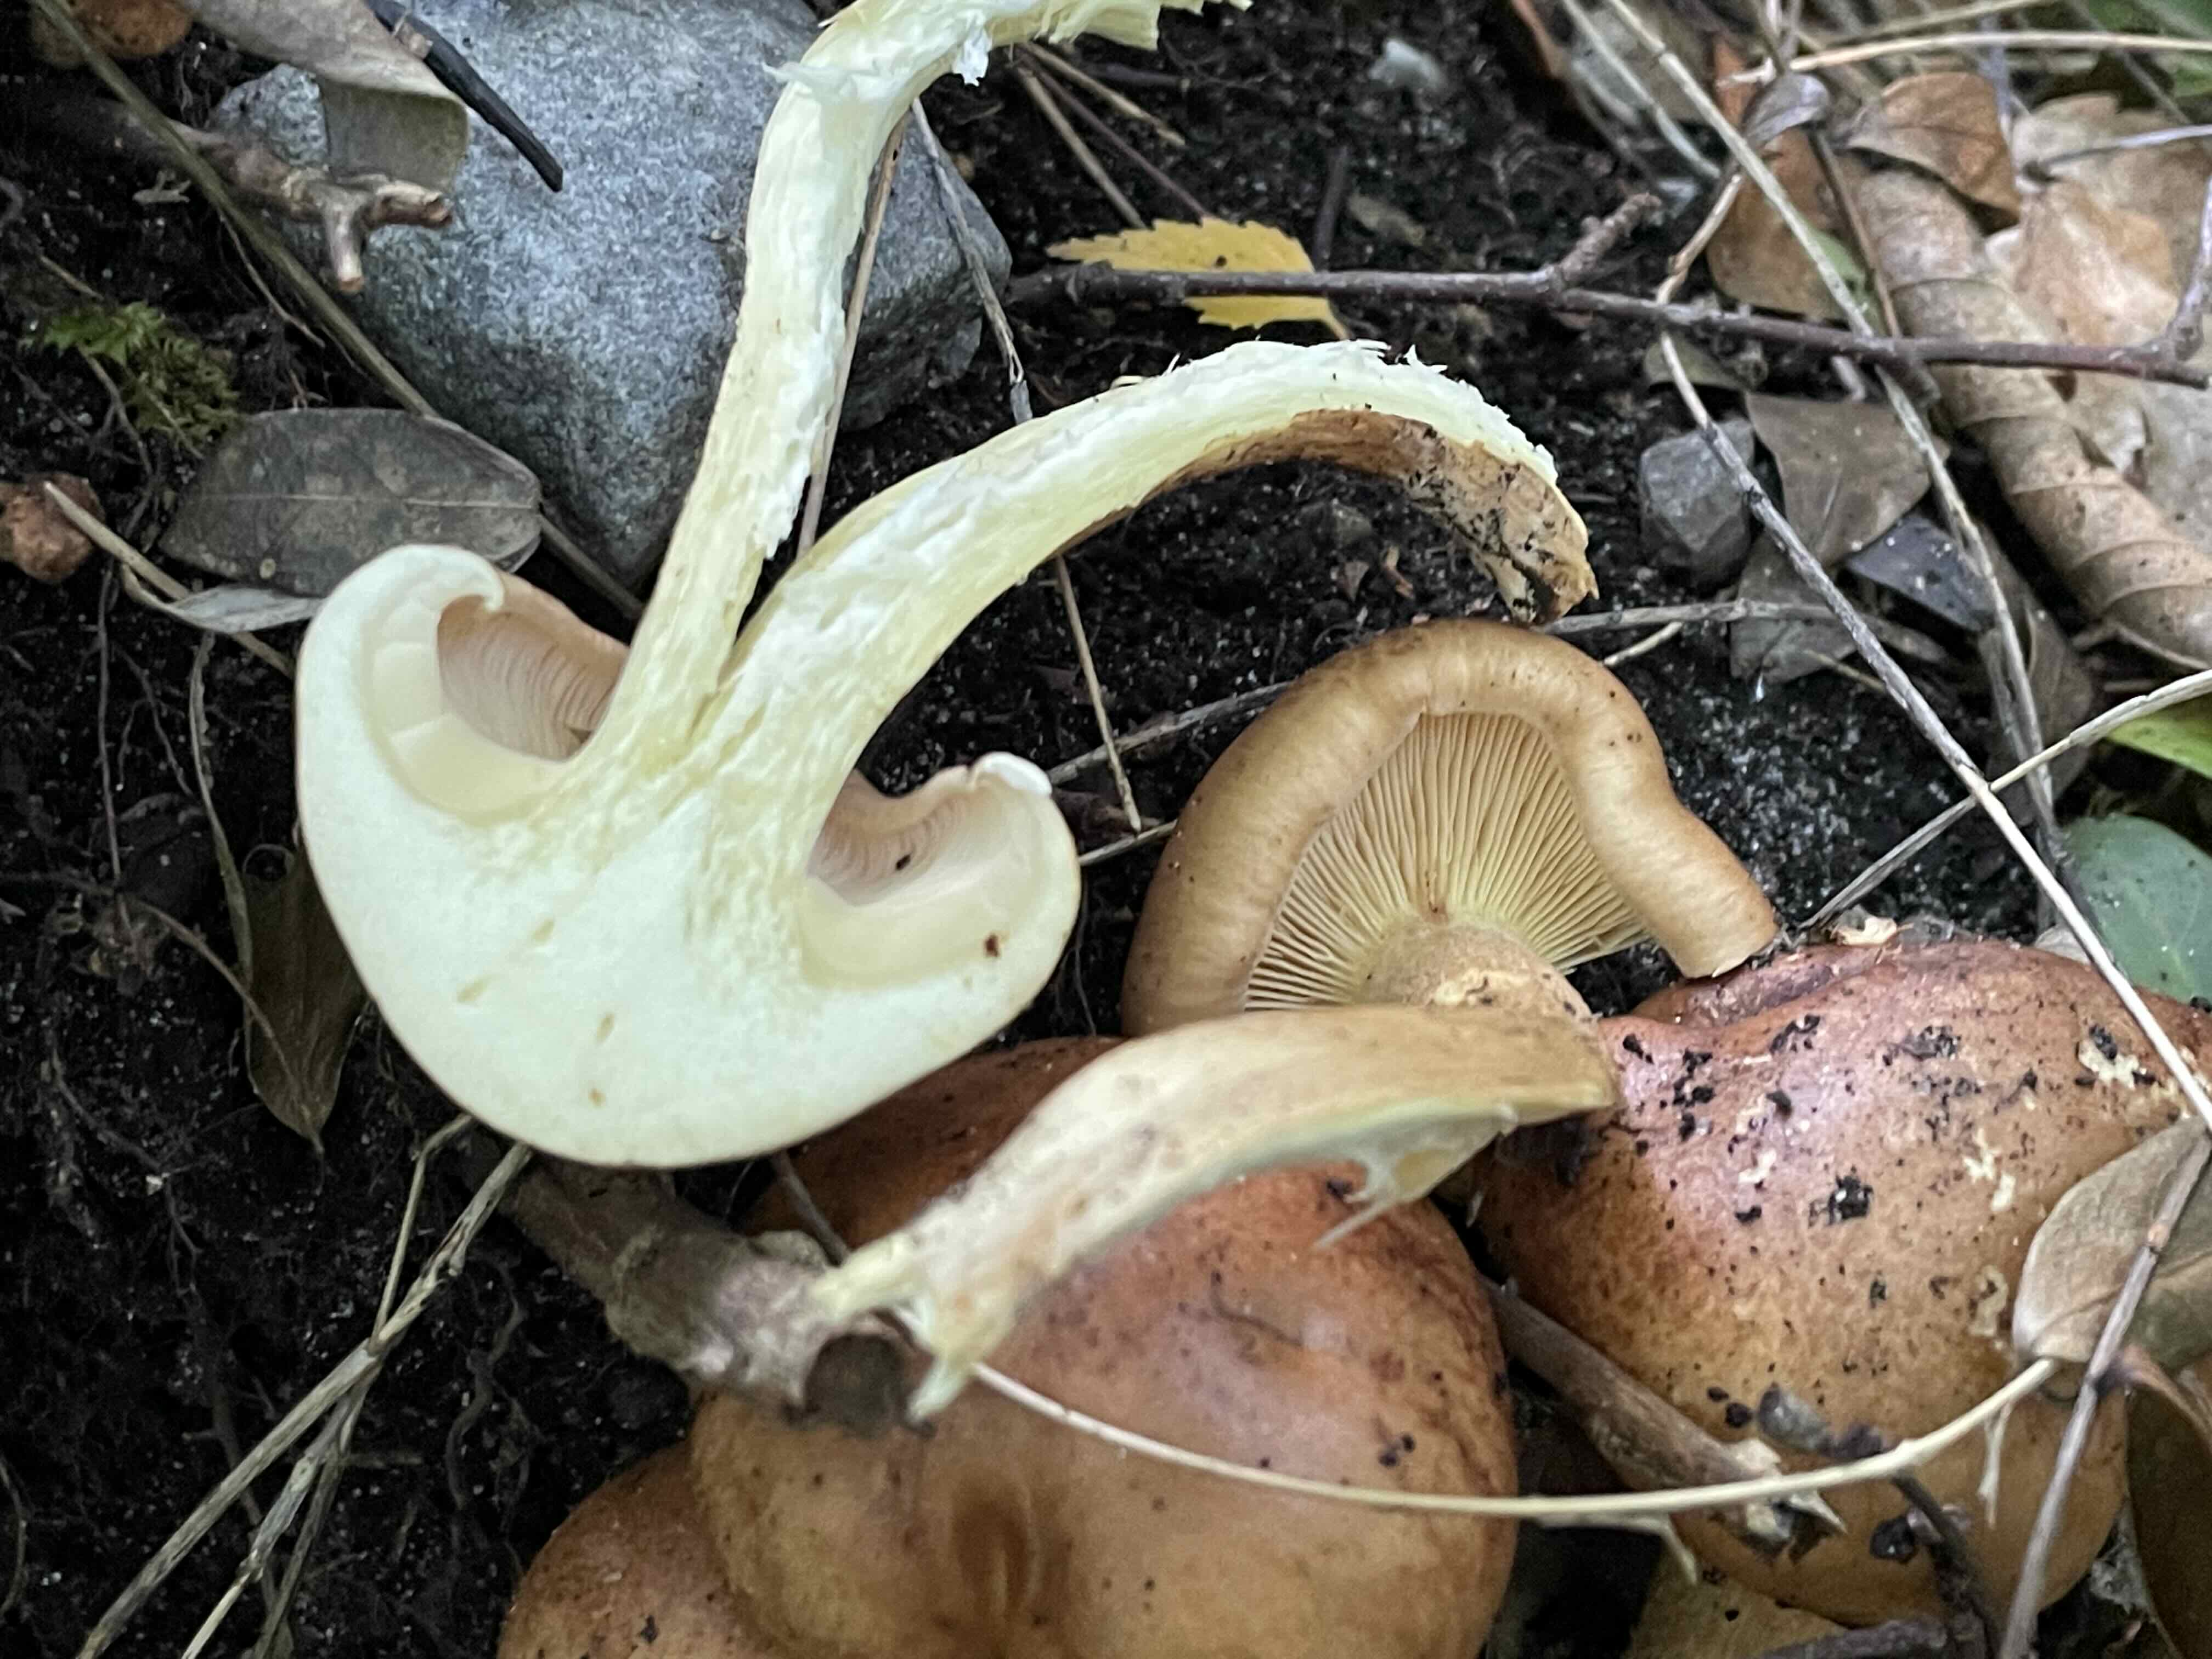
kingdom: Fungi
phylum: Basidiomycota
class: Agaricomycetes
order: Agaricales
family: Tricholomataceae
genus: Tricholoma
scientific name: Tricholoma fulvum
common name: birke-ridderhat
